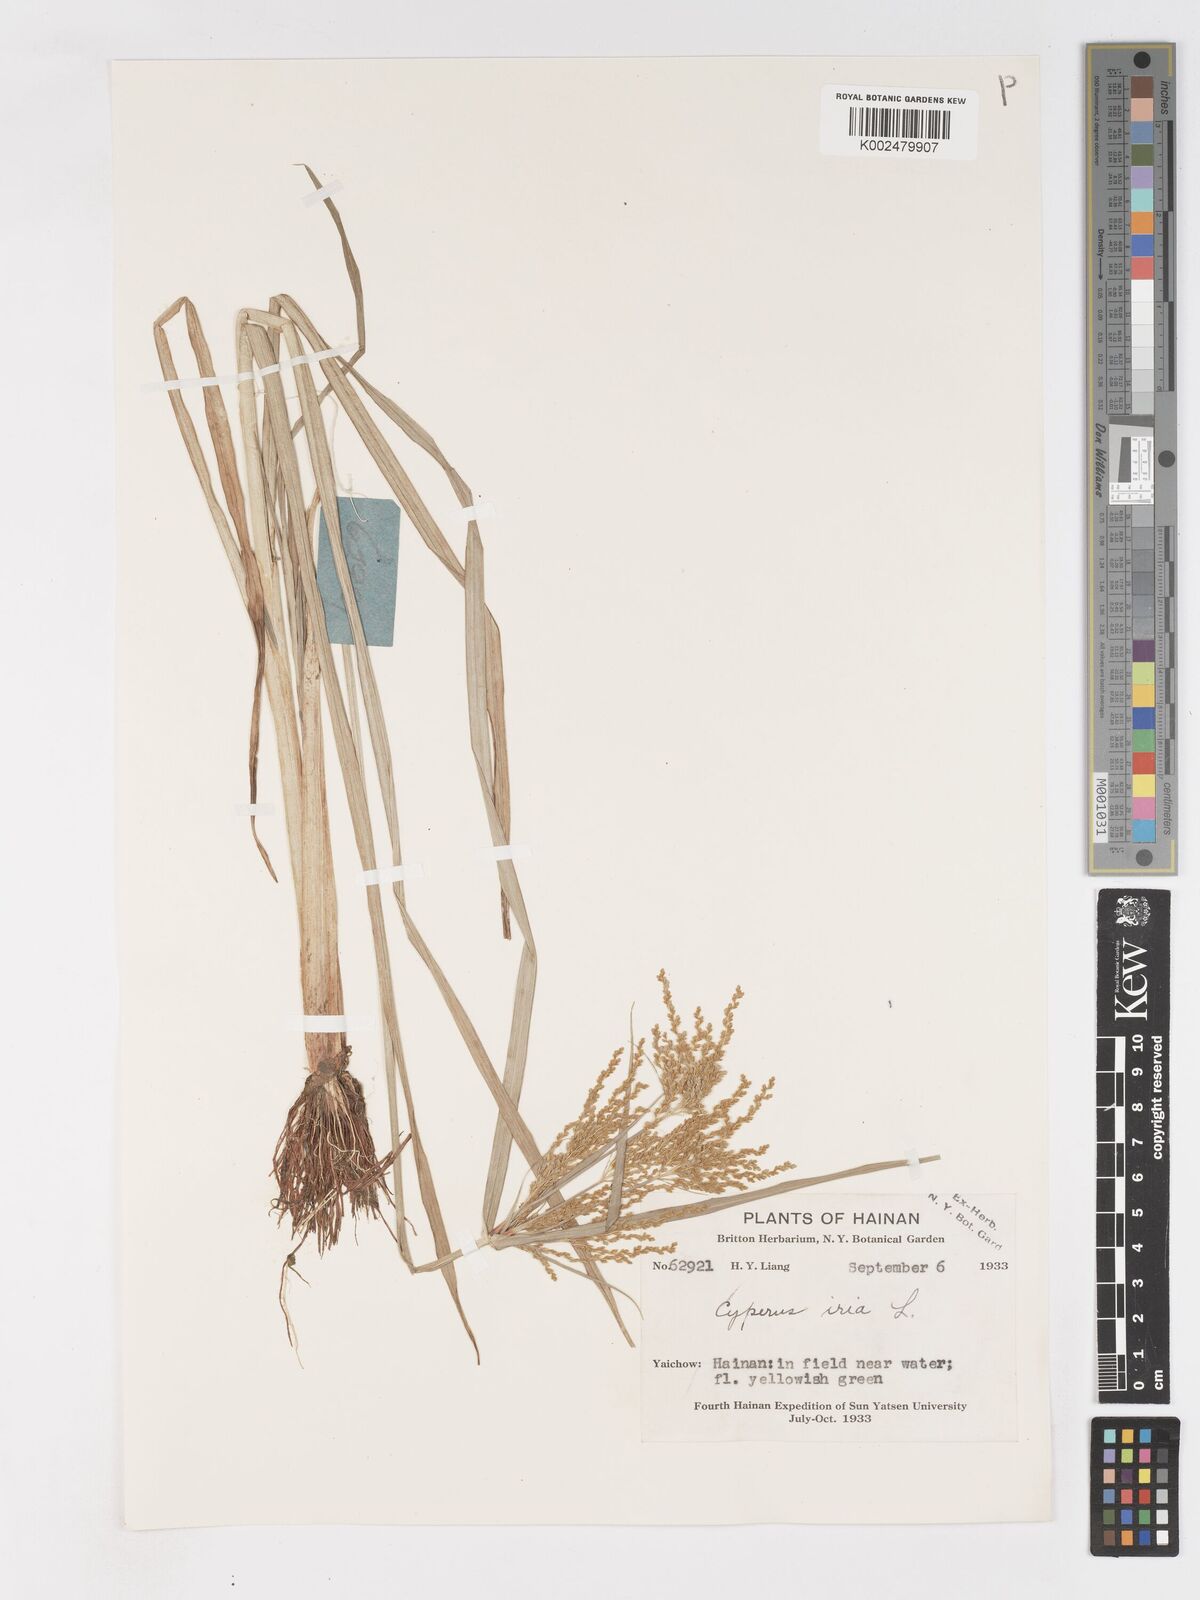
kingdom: Plantae
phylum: Tracheophyta
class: Liliopsida
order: Poales
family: Cyperaceae
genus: Cyperus
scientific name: Cyperus iria
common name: Ricefield flatsedge
